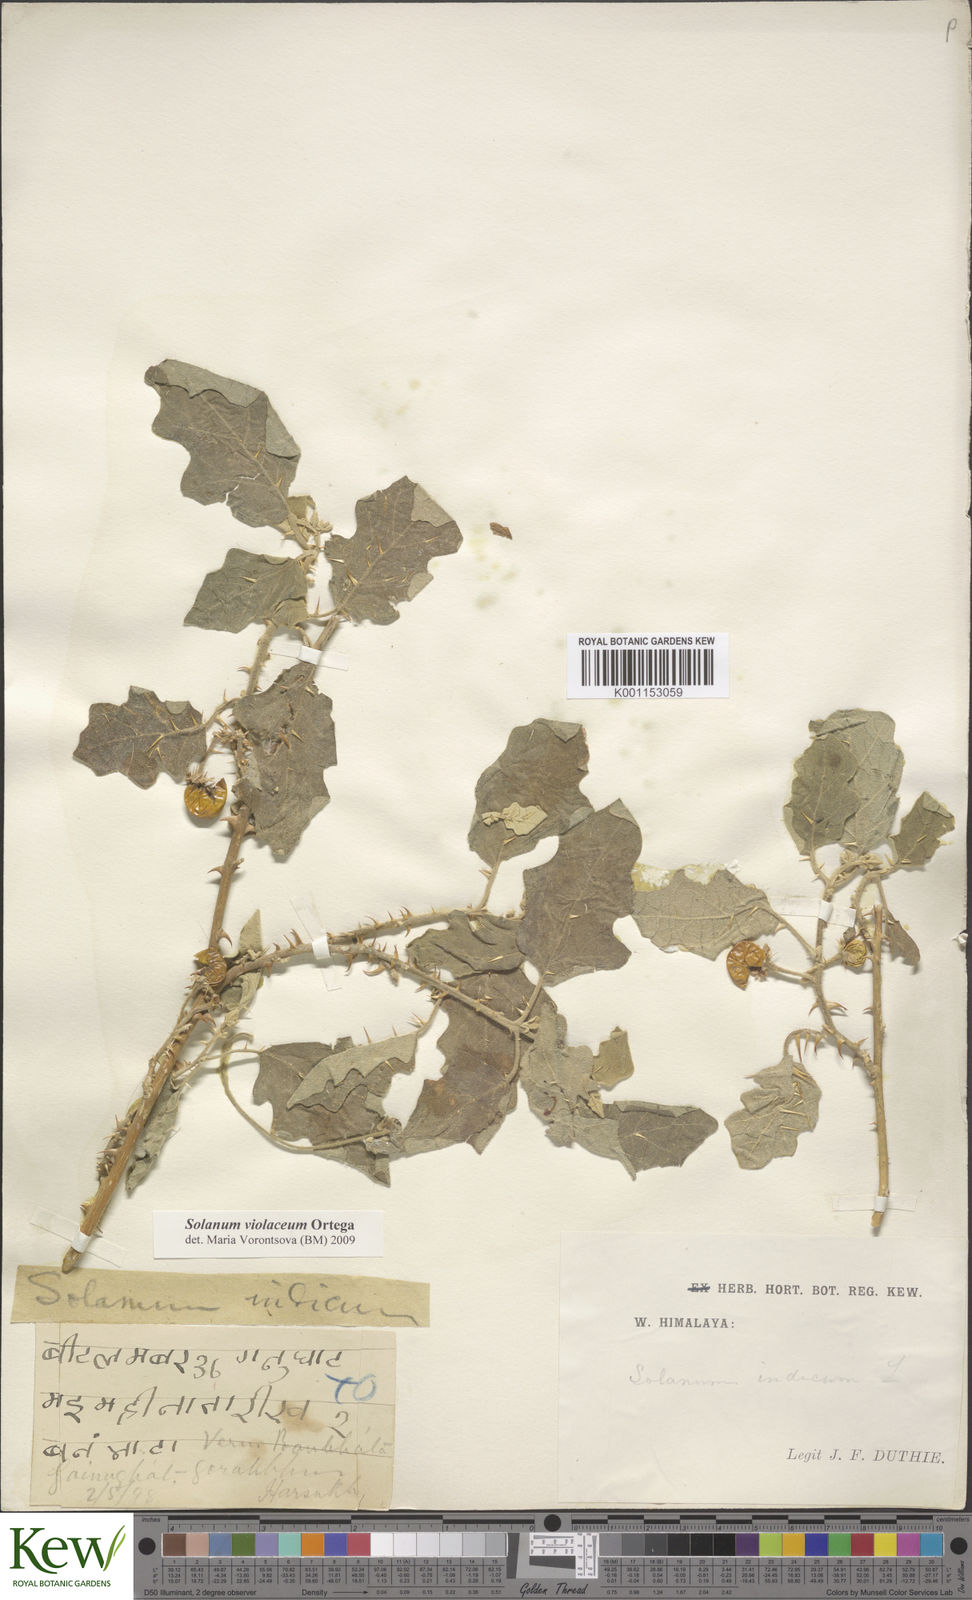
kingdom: Plantae
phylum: Tracheophyta
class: Magnoliopsida
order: Solanales
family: Solanaceae
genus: Solanum
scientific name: Solanum violaceum
